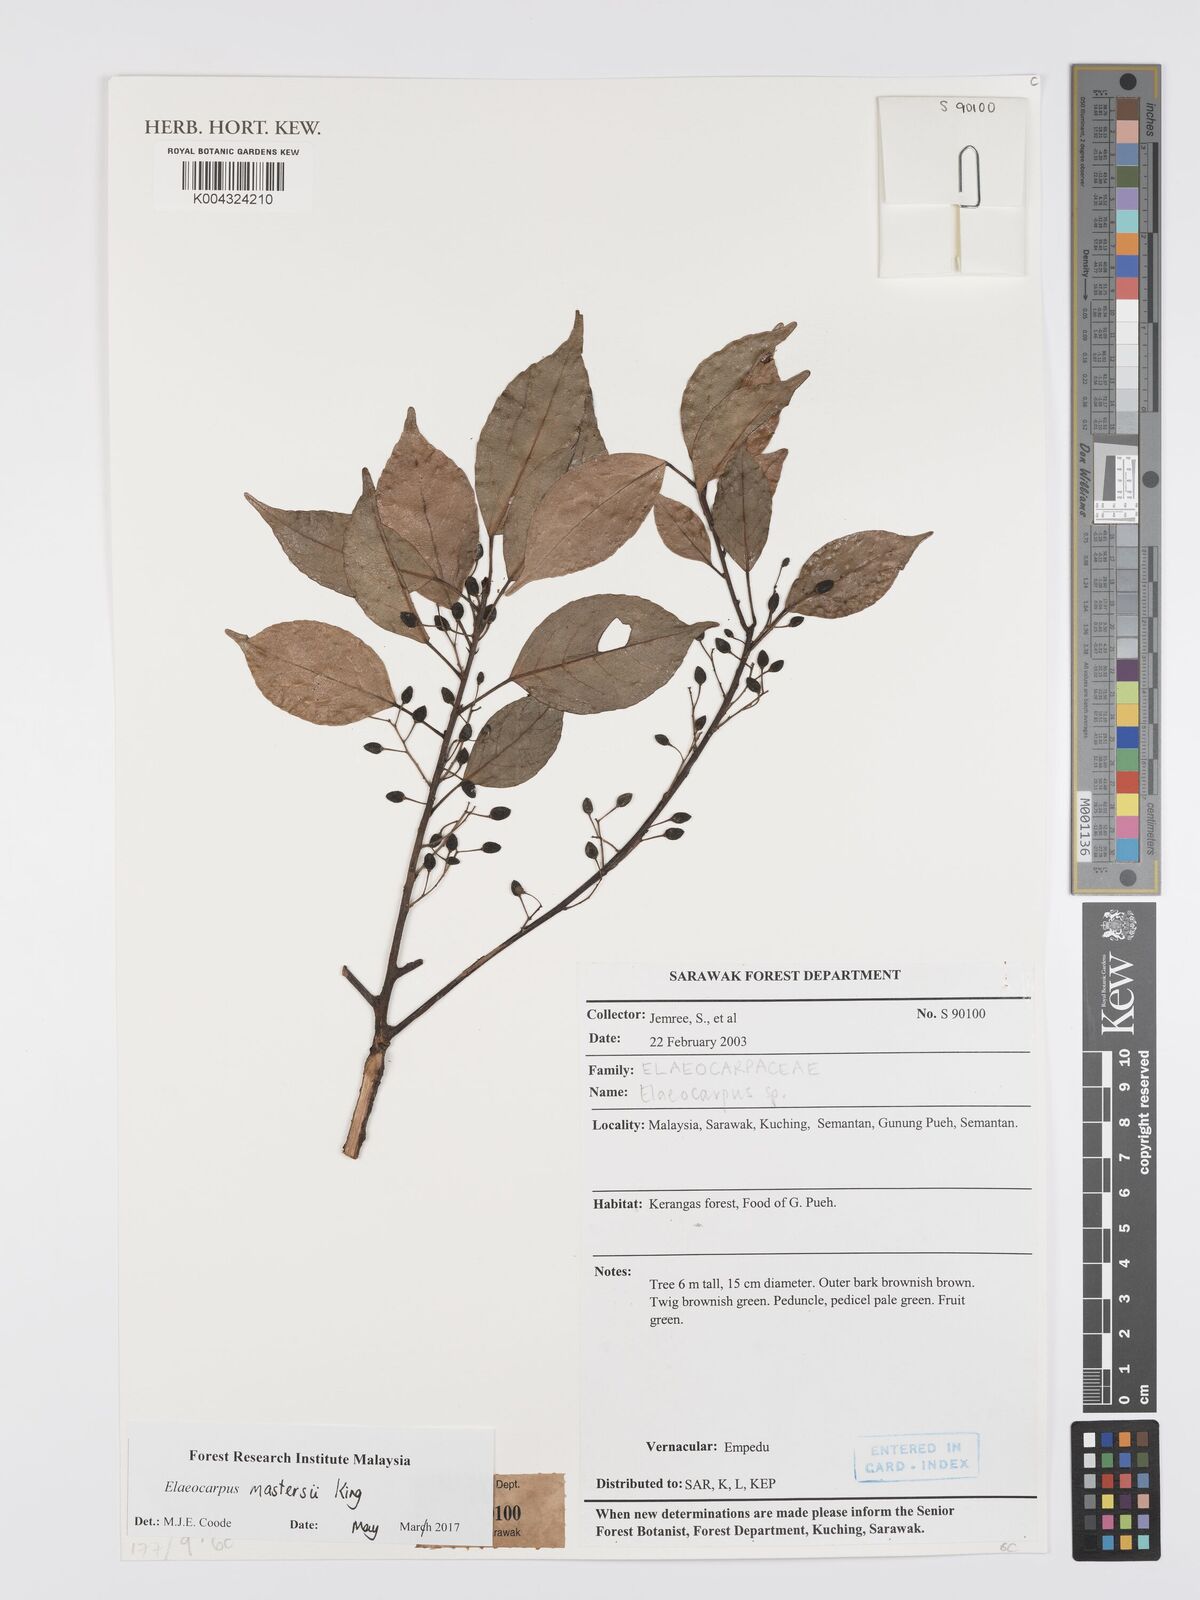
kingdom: Plantae
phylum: Tracheophyta
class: Magnoliopsida
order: Oxalidales
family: Elaeocarpaceae
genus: Elaeocarpus
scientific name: Elaeocarpus mastersii
